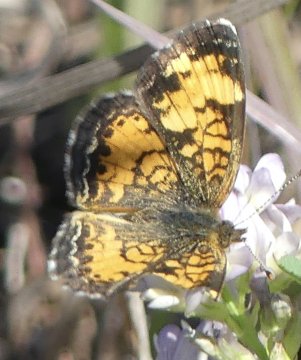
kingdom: Animalia
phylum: Arthropoda
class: Insecta
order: Lepidoptera
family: Nymphalidae
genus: Phyciodes
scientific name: Phyciodes
